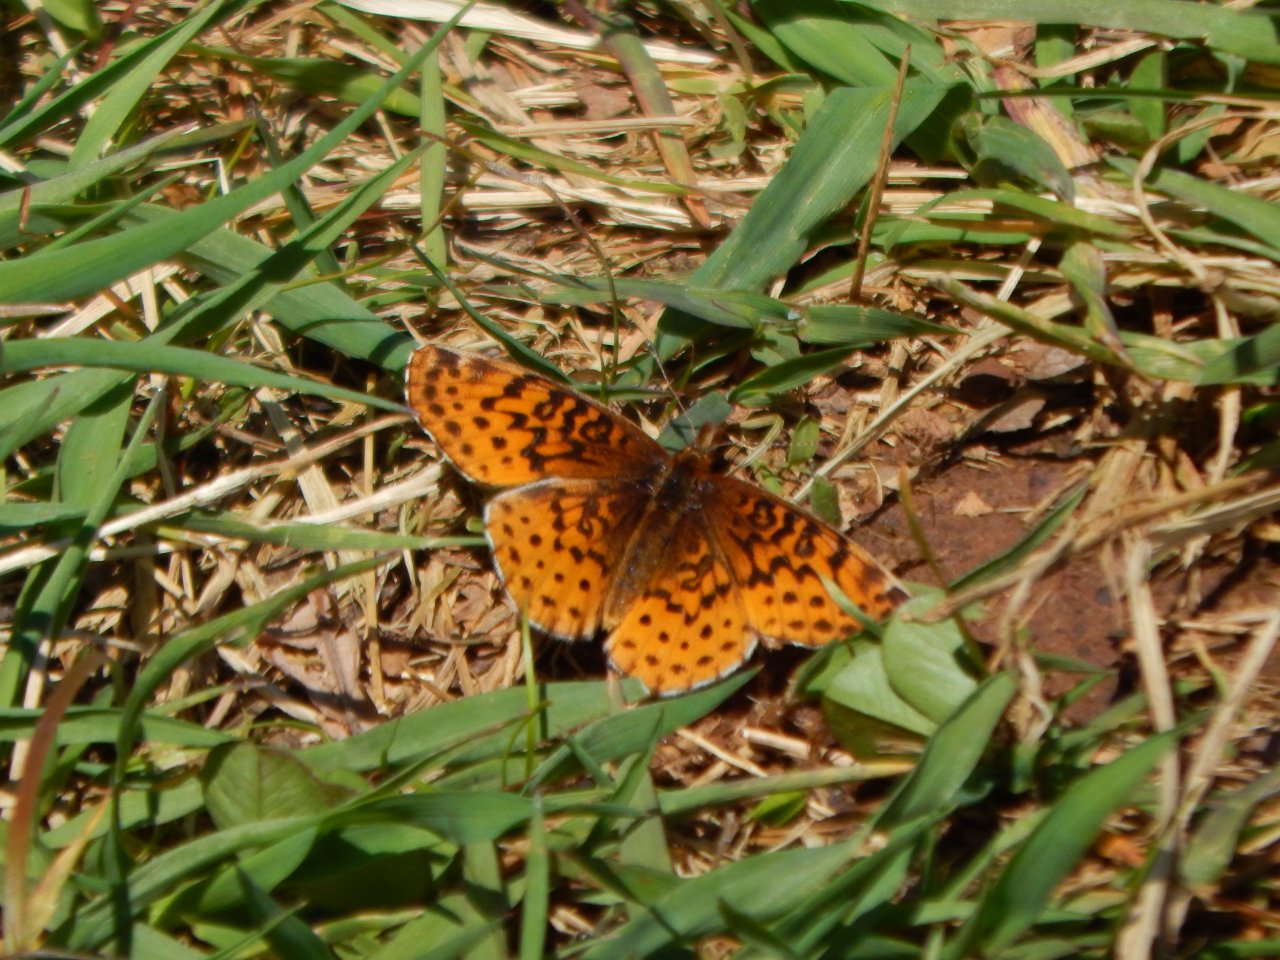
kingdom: Animalia
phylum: Arthropoda
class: Insecta
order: Lepidoptera
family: Nymphalidae
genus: Clossiana
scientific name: Clossiana toddi
